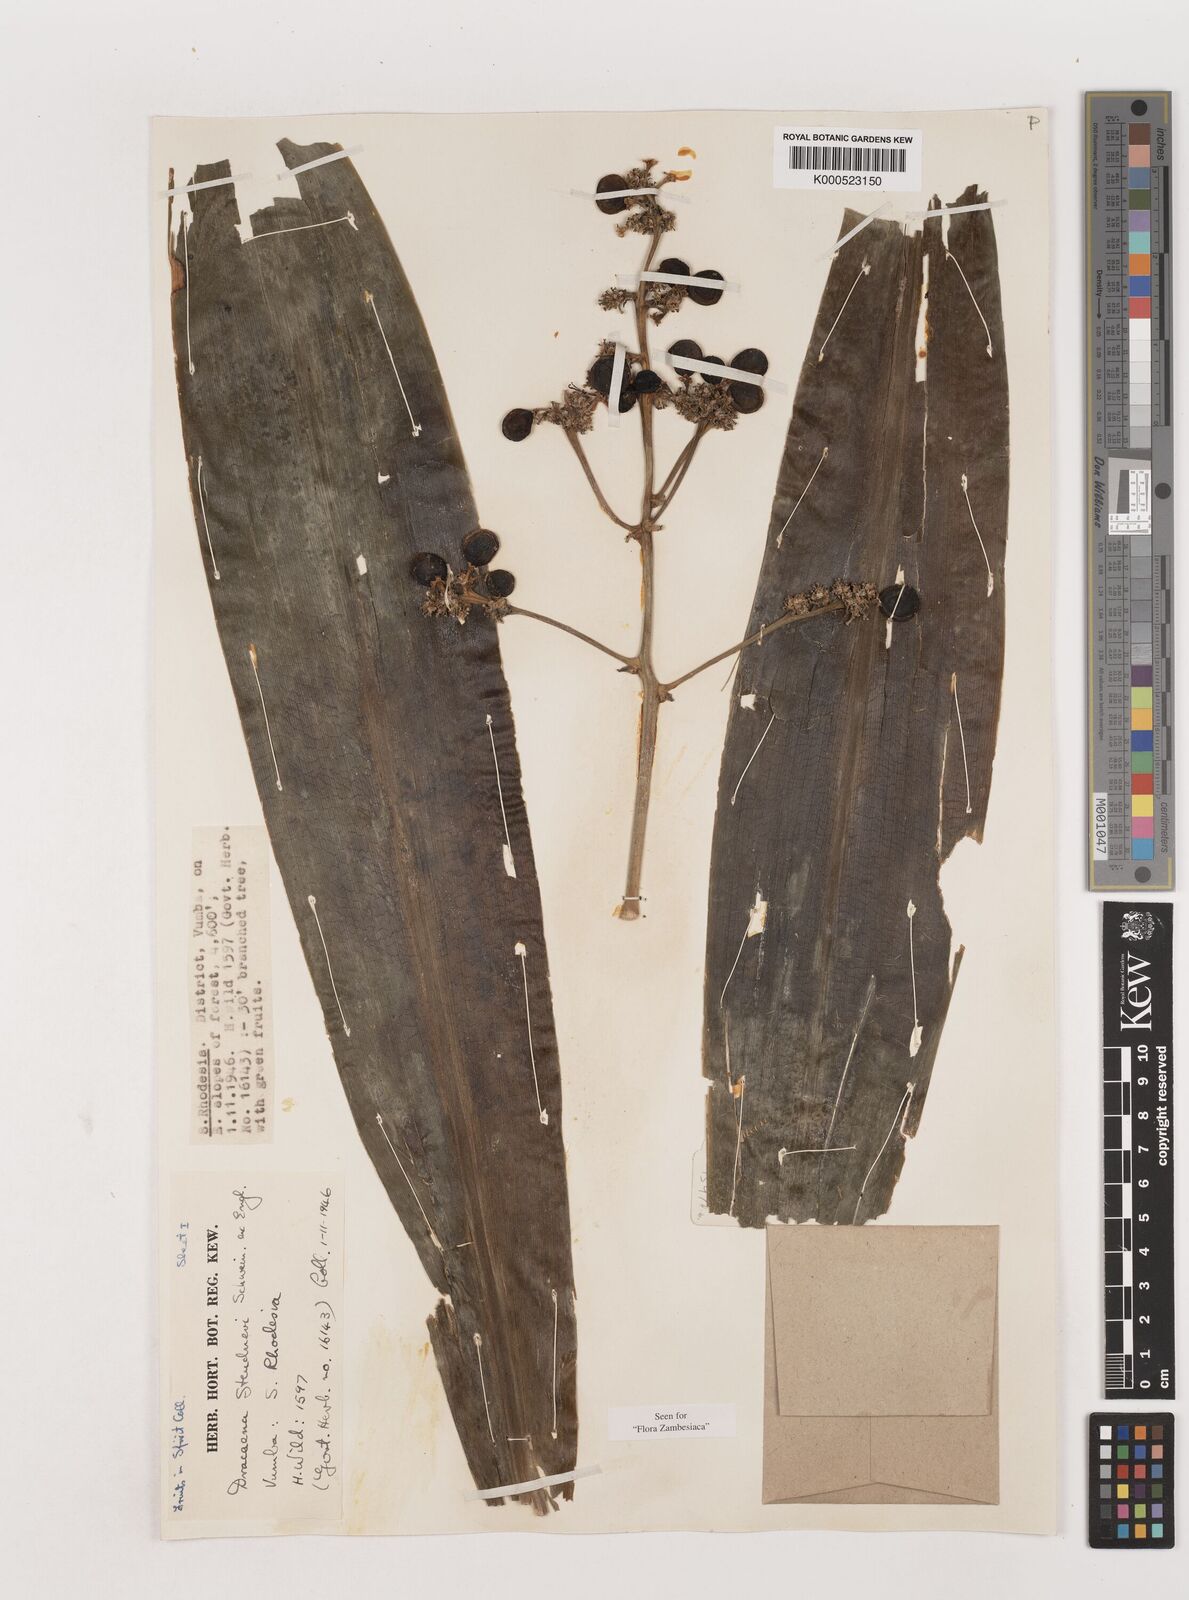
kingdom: Plantae
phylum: Tracheophyta
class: Liliopsida
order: Asparagales
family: Asparagaceae
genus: Dracaena
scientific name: Dracaena steudneri
